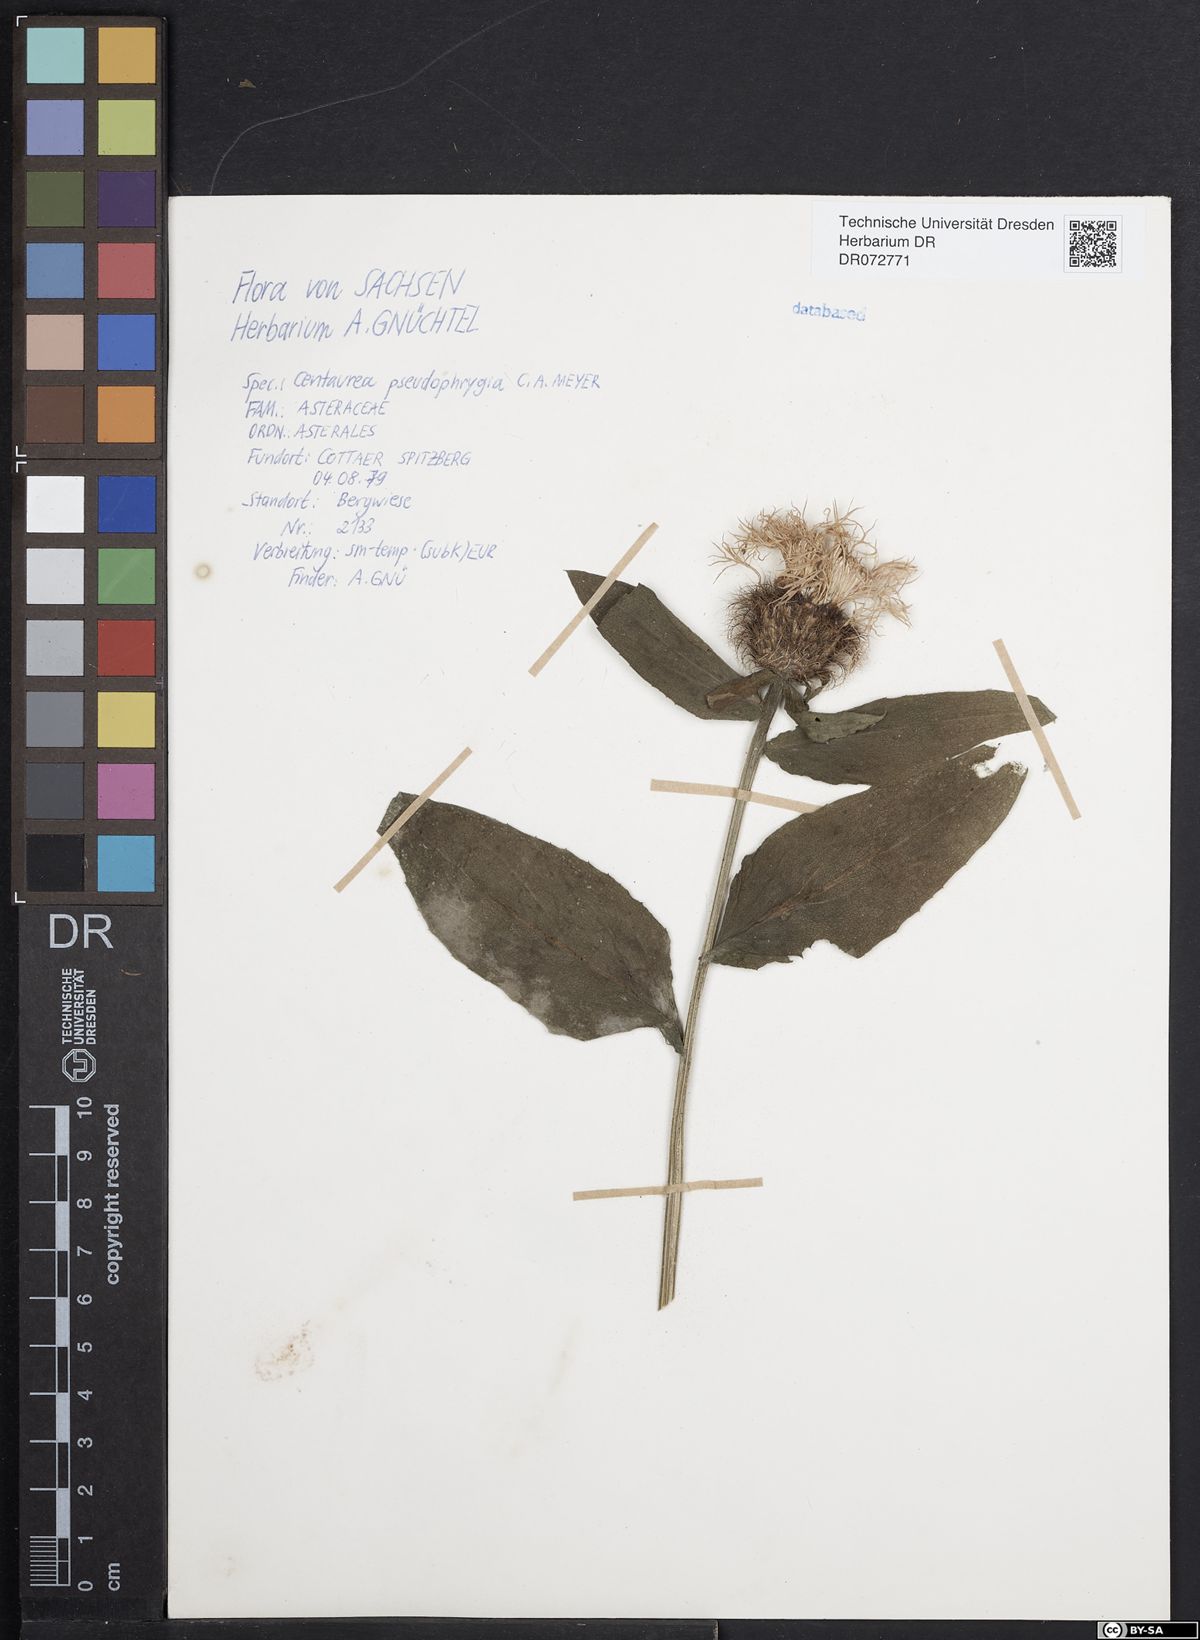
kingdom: Plantae
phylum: Tracheophyta
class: Magnoliopsida
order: Asterales
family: Asteraceae
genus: Centaurea
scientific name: Centaurea pseudophrygia
